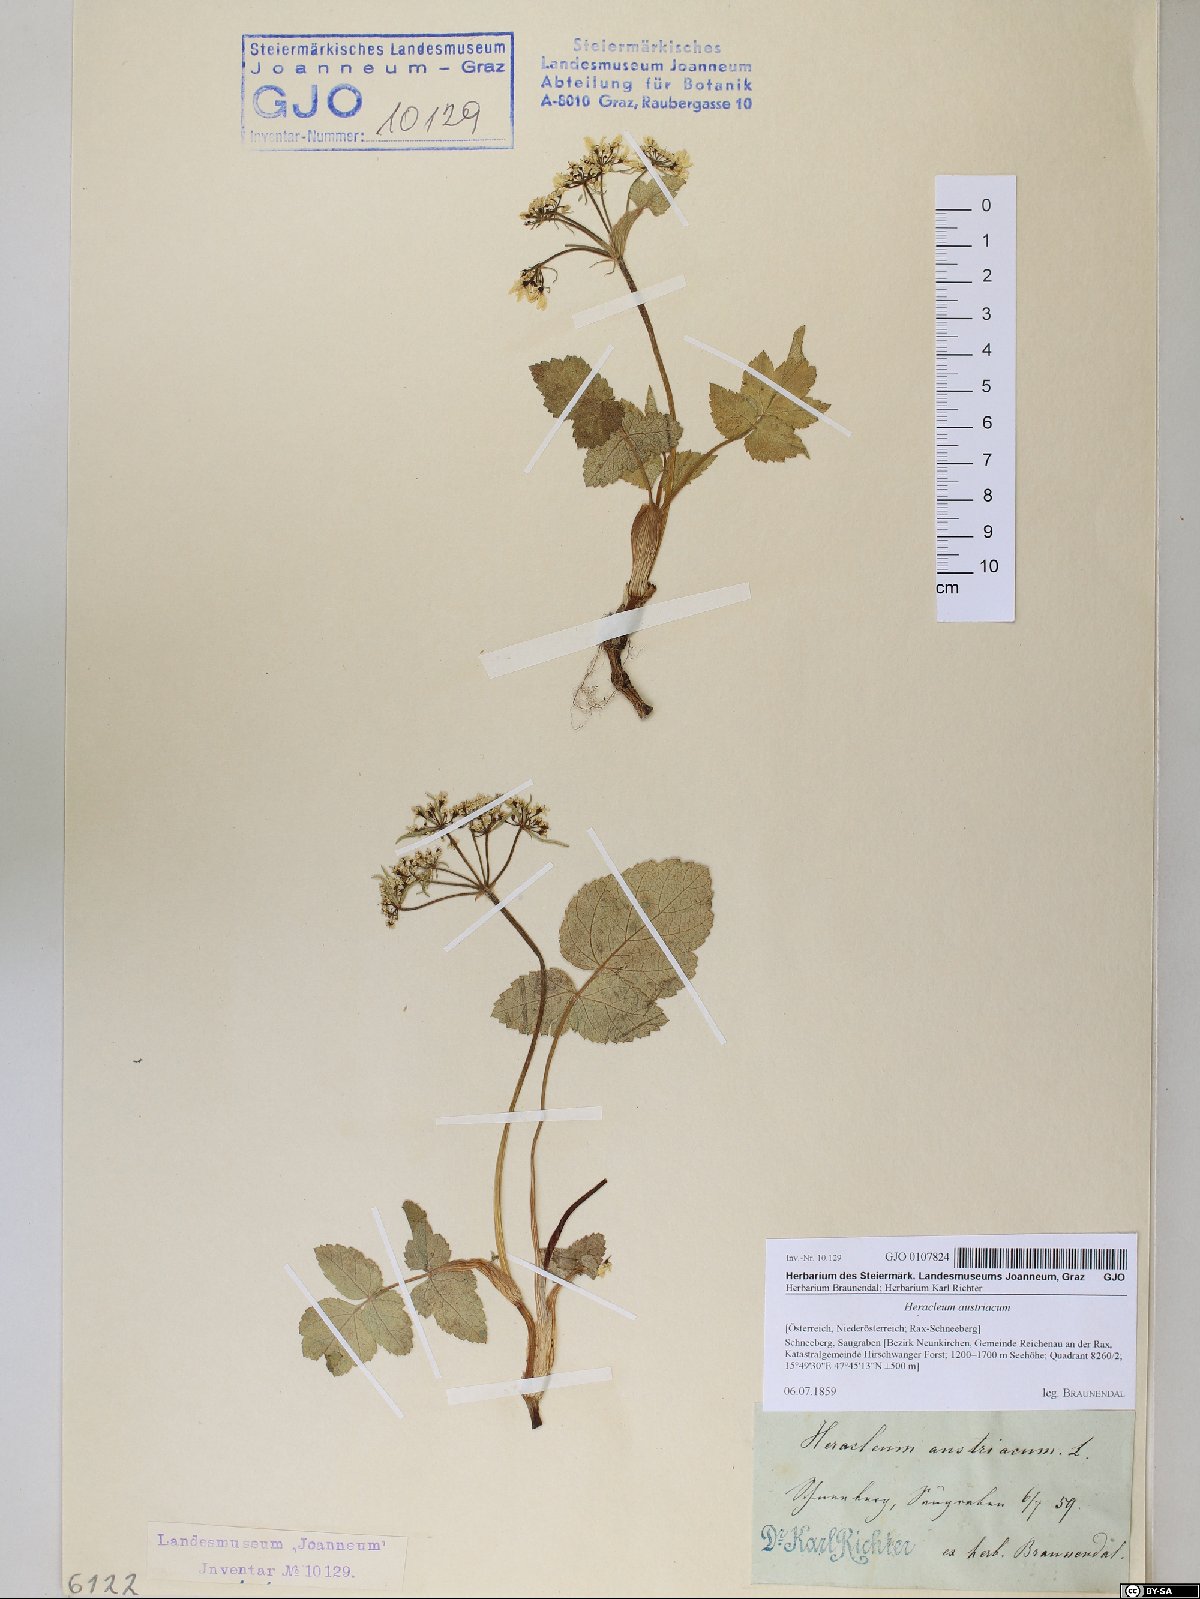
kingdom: Plantae
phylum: Tracheophyta
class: Magnoliopsida
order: Apiales
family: Apiaceae
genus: Heracleum
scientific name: Heracleum austriacum
